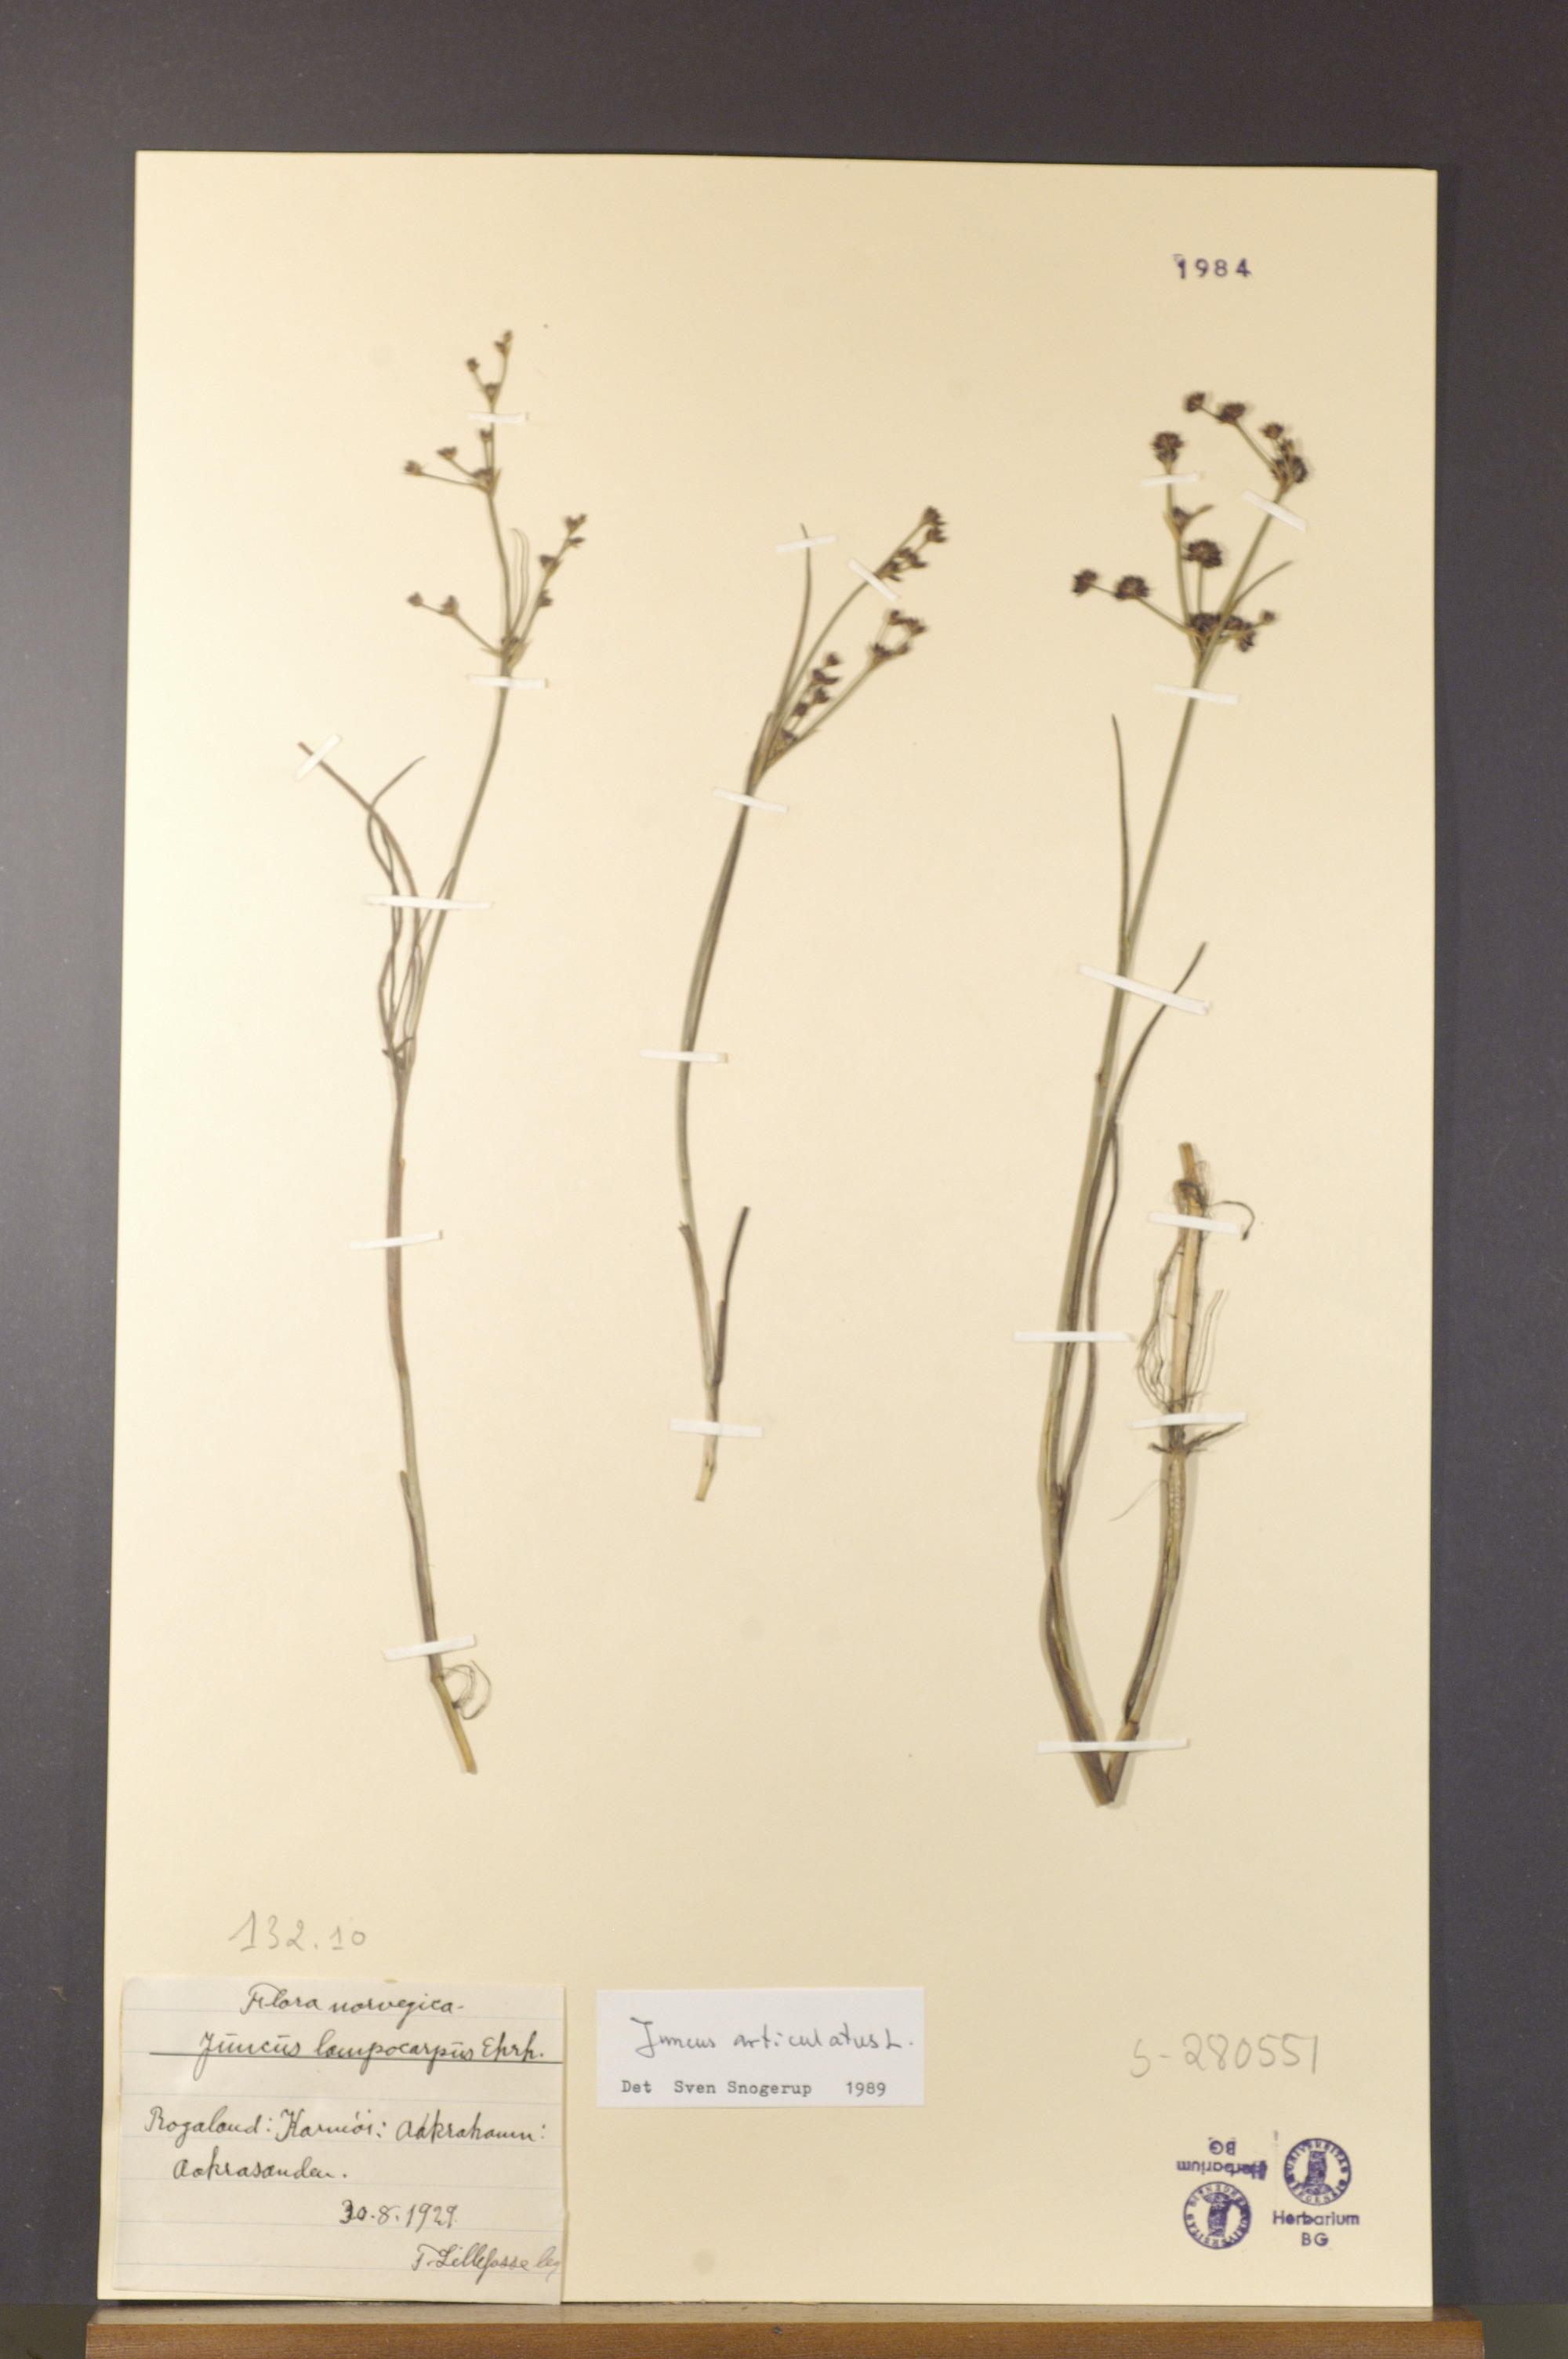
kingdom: Plantae
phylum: Tracheophyta
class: Liliopsida
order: Poales
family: Juncaceae
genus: Juncus
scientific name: Juncus articulatus
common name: Jointed rush
